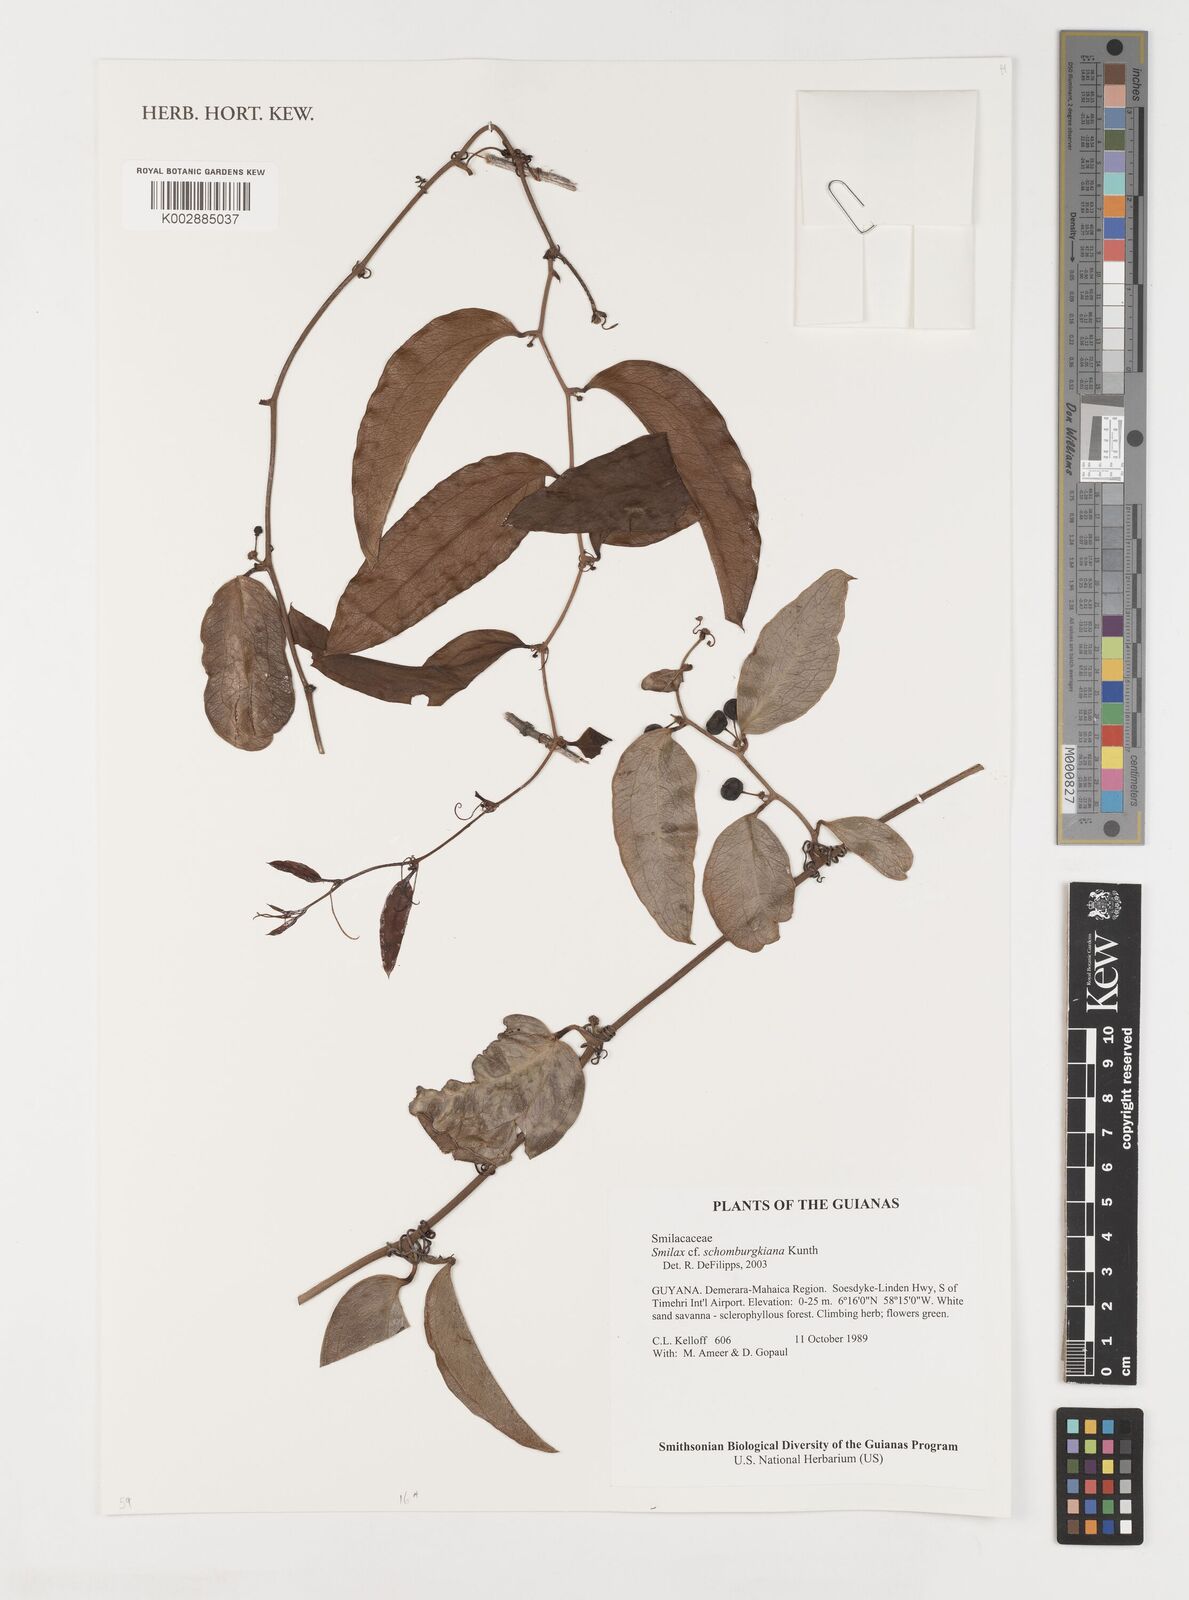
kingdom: Plantae
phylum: Tracheophyta
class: Liliopsida
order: Liliales
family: Smilacaceae
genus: Smilax
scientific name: Smilax schomburgkiana
